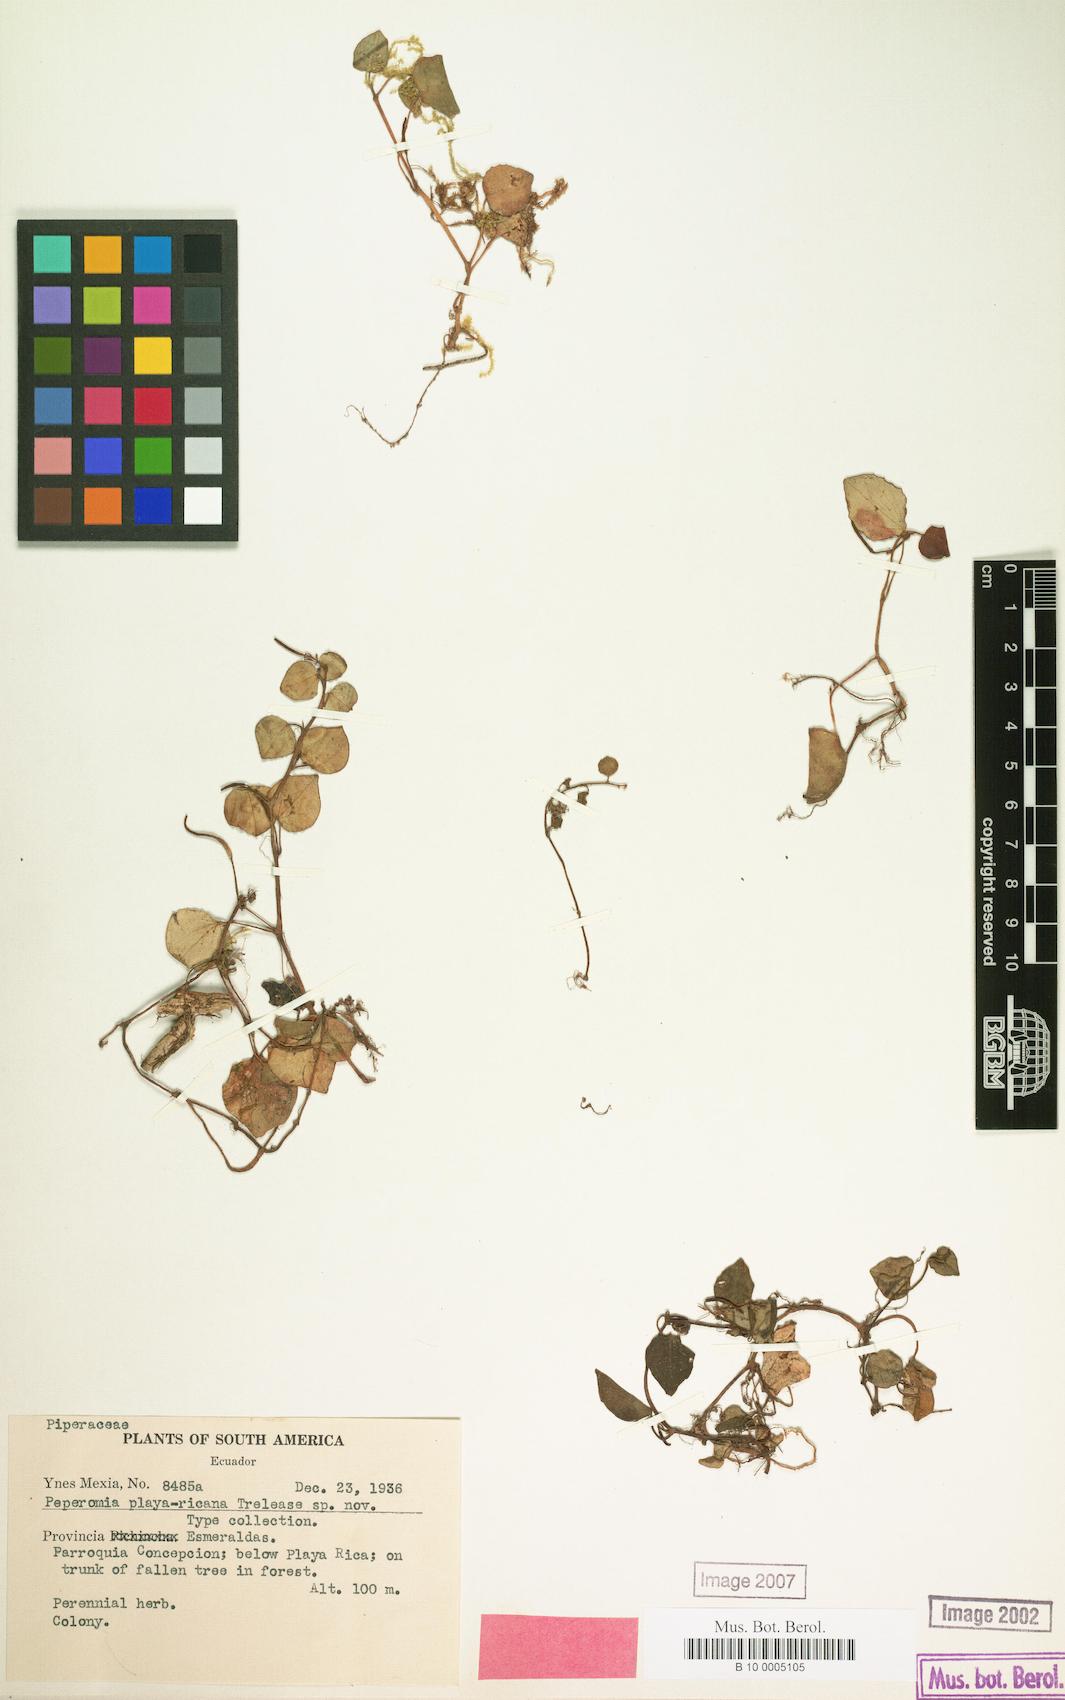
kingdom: Plantae
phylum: Tracheophyta
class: Magnoliopsida
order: Piperales
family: Piperaceae
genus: Peperomia
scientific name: Peperomia
